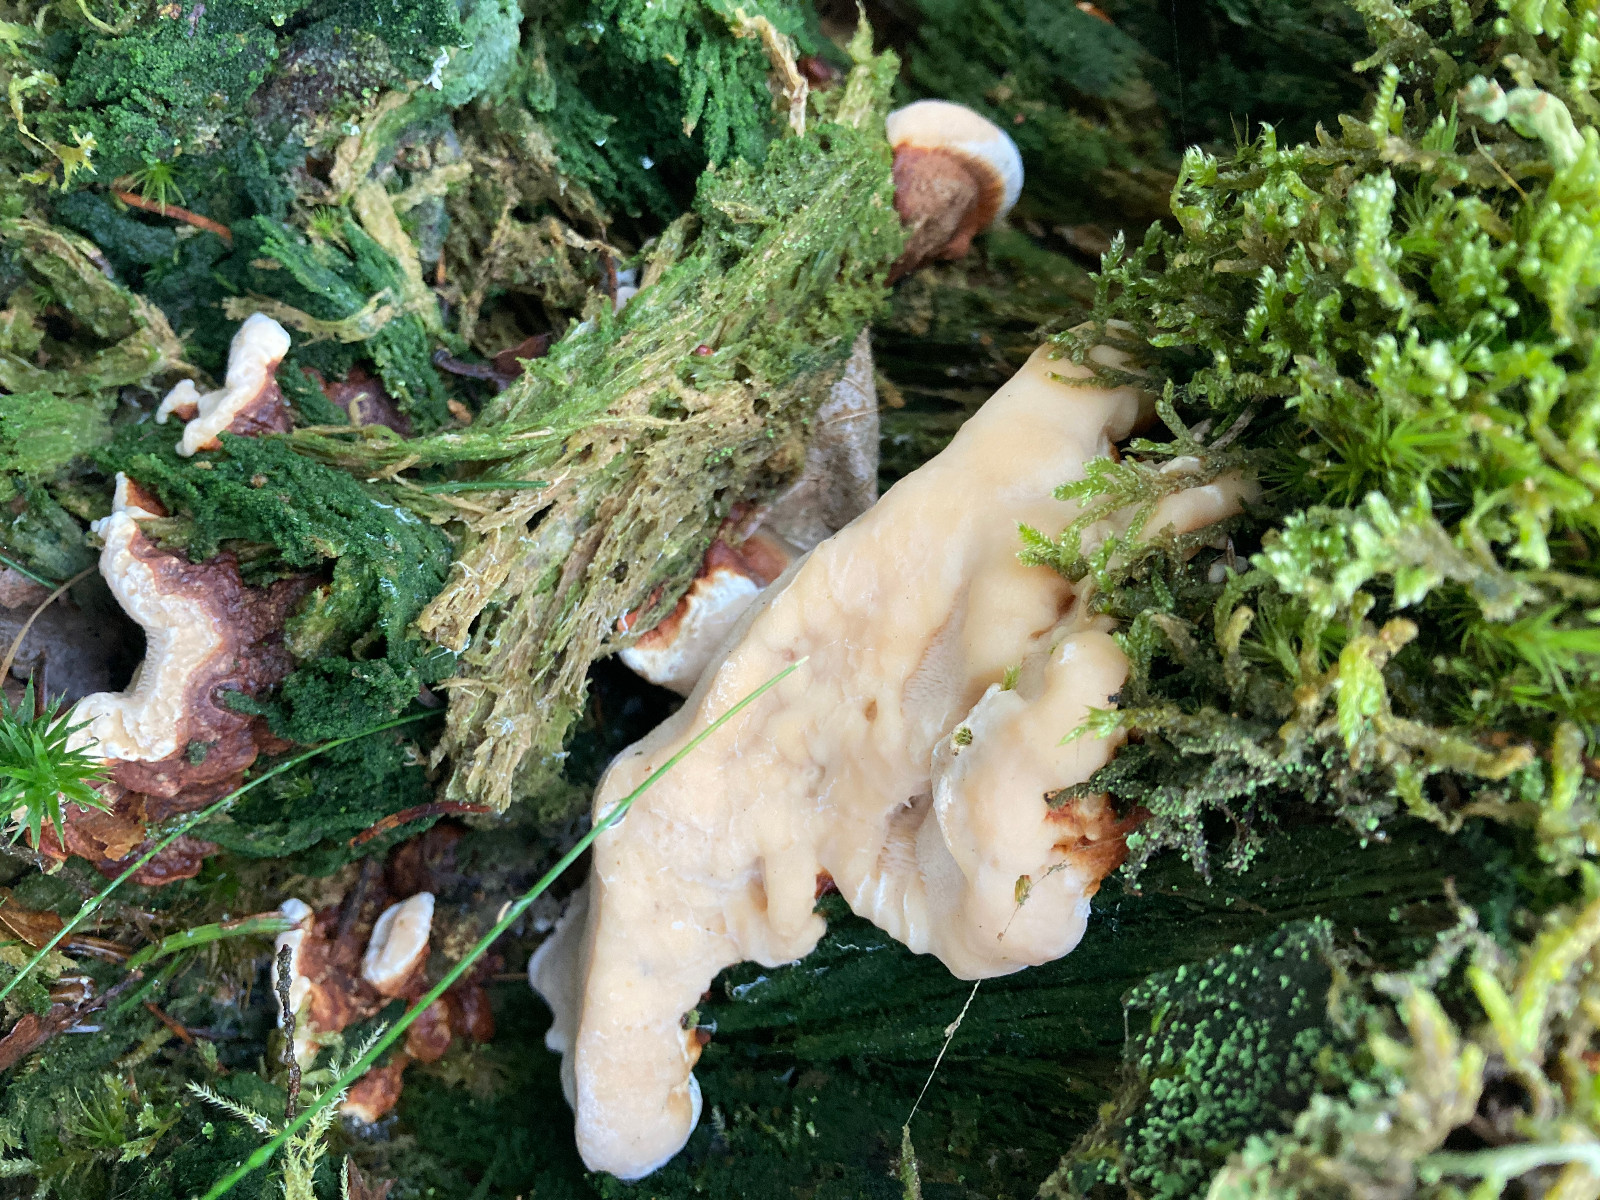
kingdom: Fungi
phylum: Basidiomycota
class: Agaricomycetes
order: Russulales
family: Bondarzewiaceae
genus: Heterobasidion
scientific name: Heterobasidion
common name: rodfordærver
